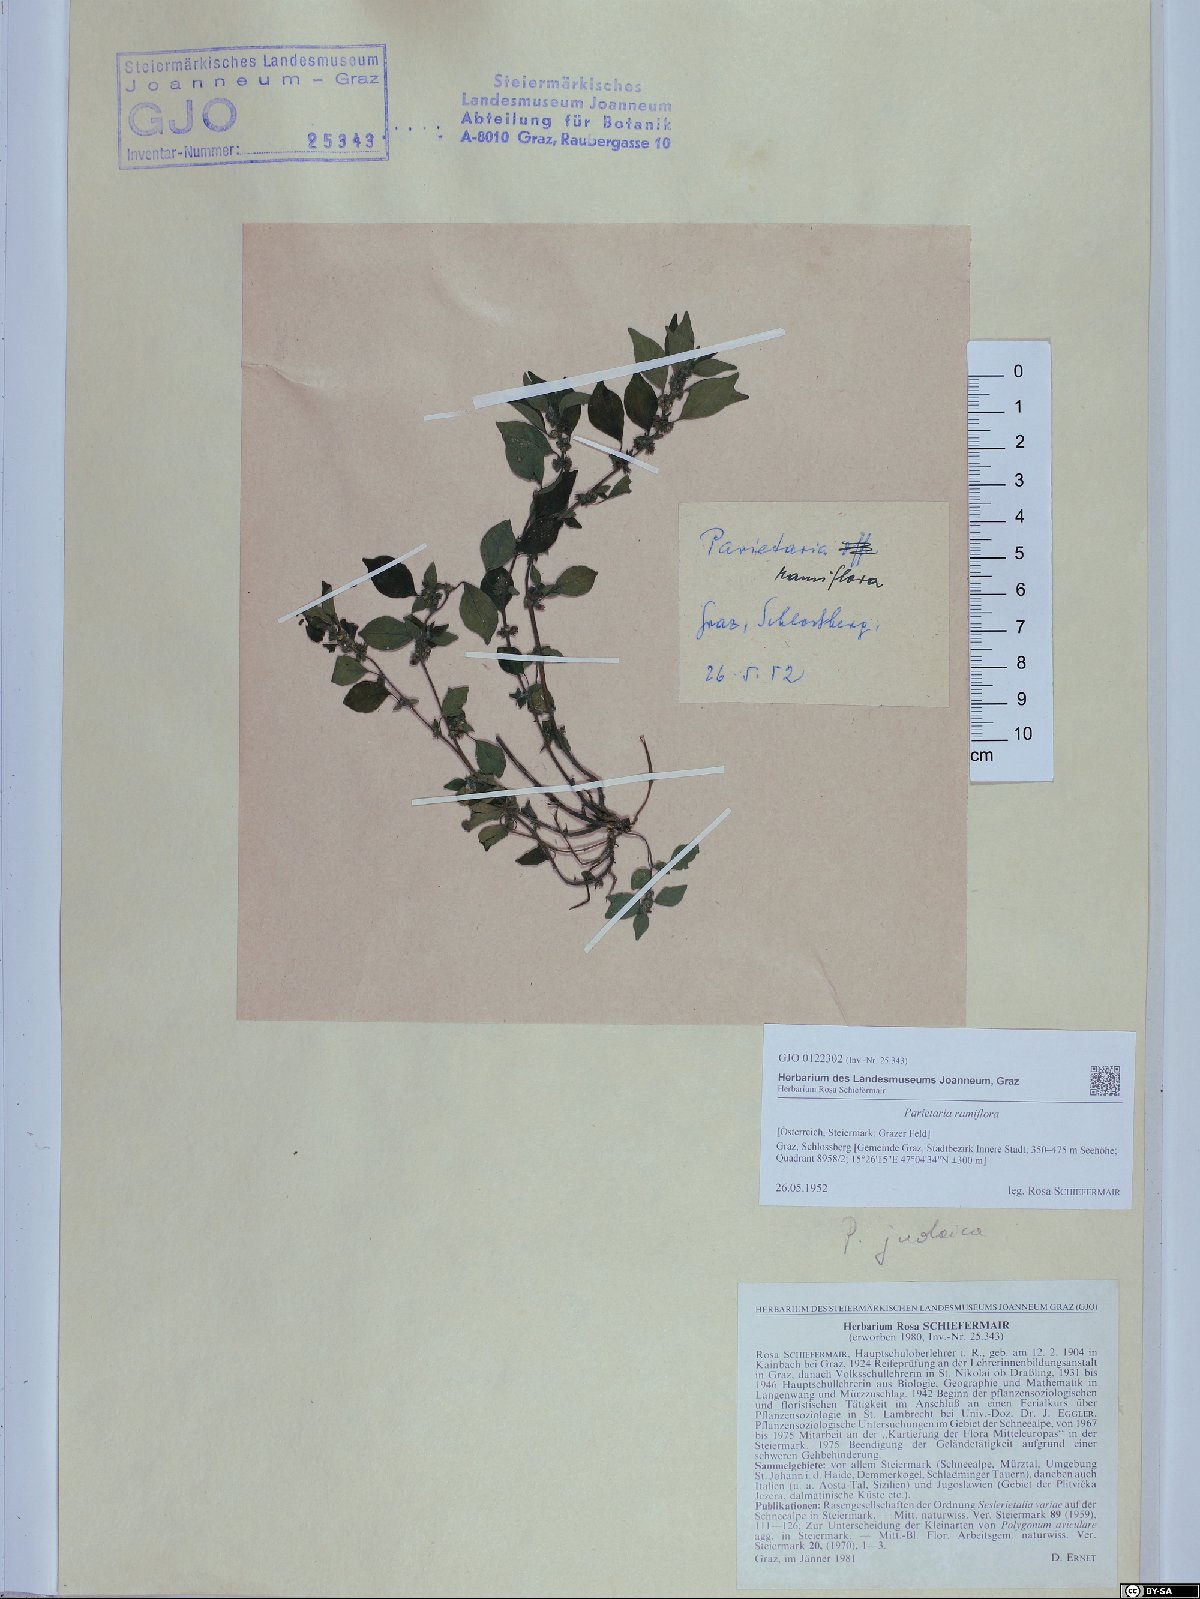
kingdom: Plantae
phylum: Tracheophyta
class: Magnoliopsida
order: Rosales
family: Urticaceae
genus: Parietaria
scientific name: Parietaria judaica
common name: Pellitory-of-the-wall
